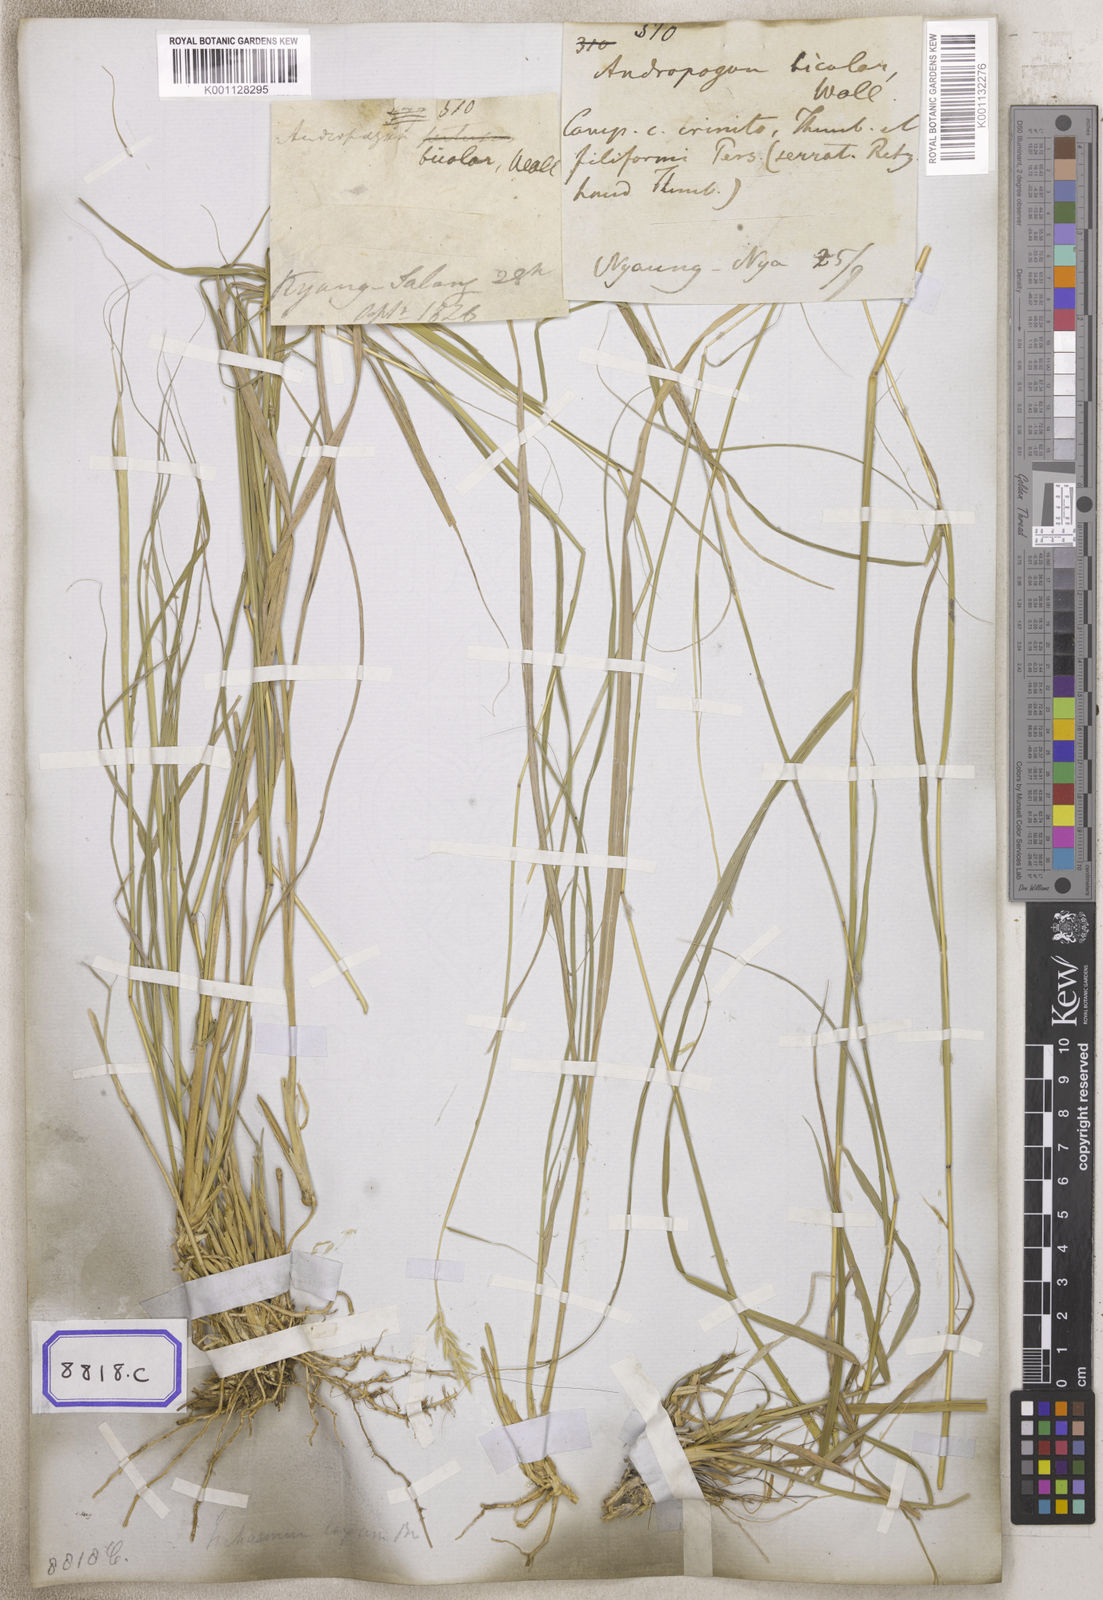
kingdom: Plantae
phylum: Tracheophyta
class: Liliopsida
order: Poales
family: Poaceae
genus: Andropogon
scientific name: Andropogon
